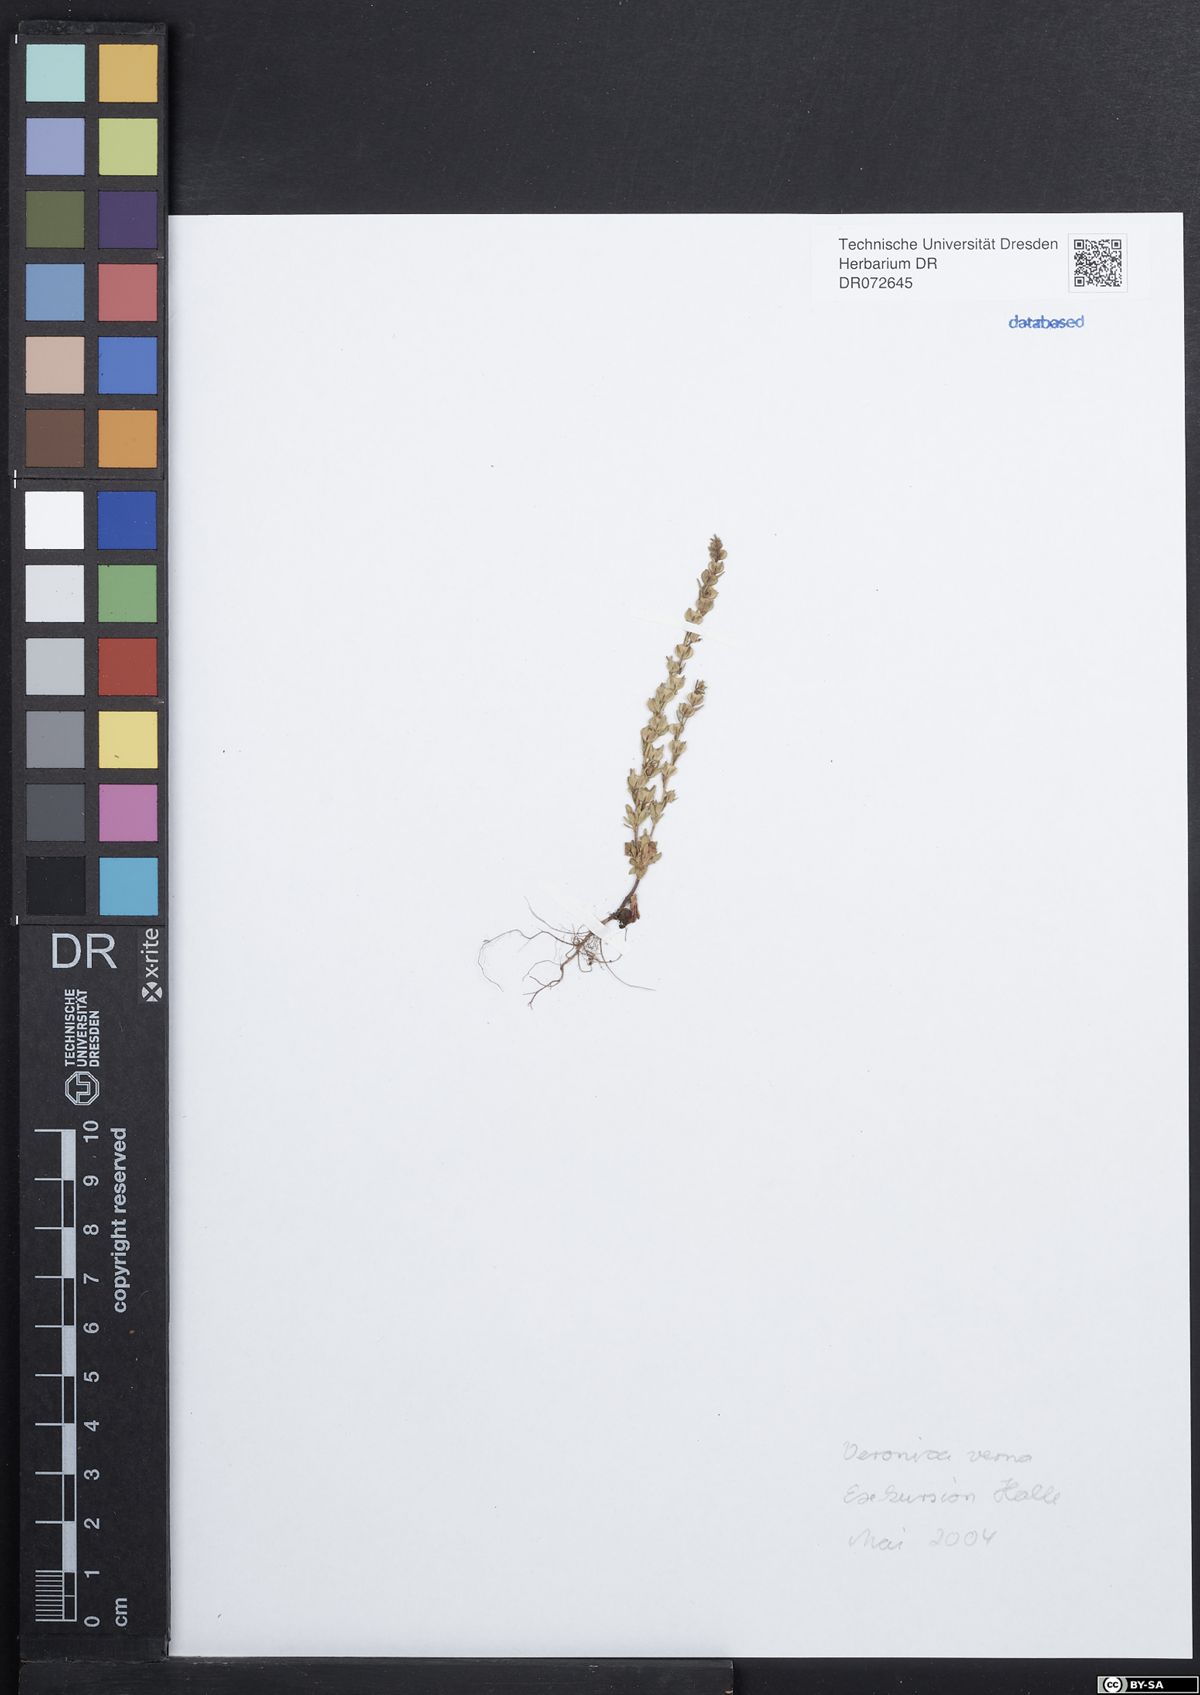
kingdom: Plantae
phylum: Tracheophyta
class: Magnoliopsida
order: Lamiales
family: Plantaginaceae
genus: Veronica
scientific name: Veronica verna
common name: Spring speedwell
